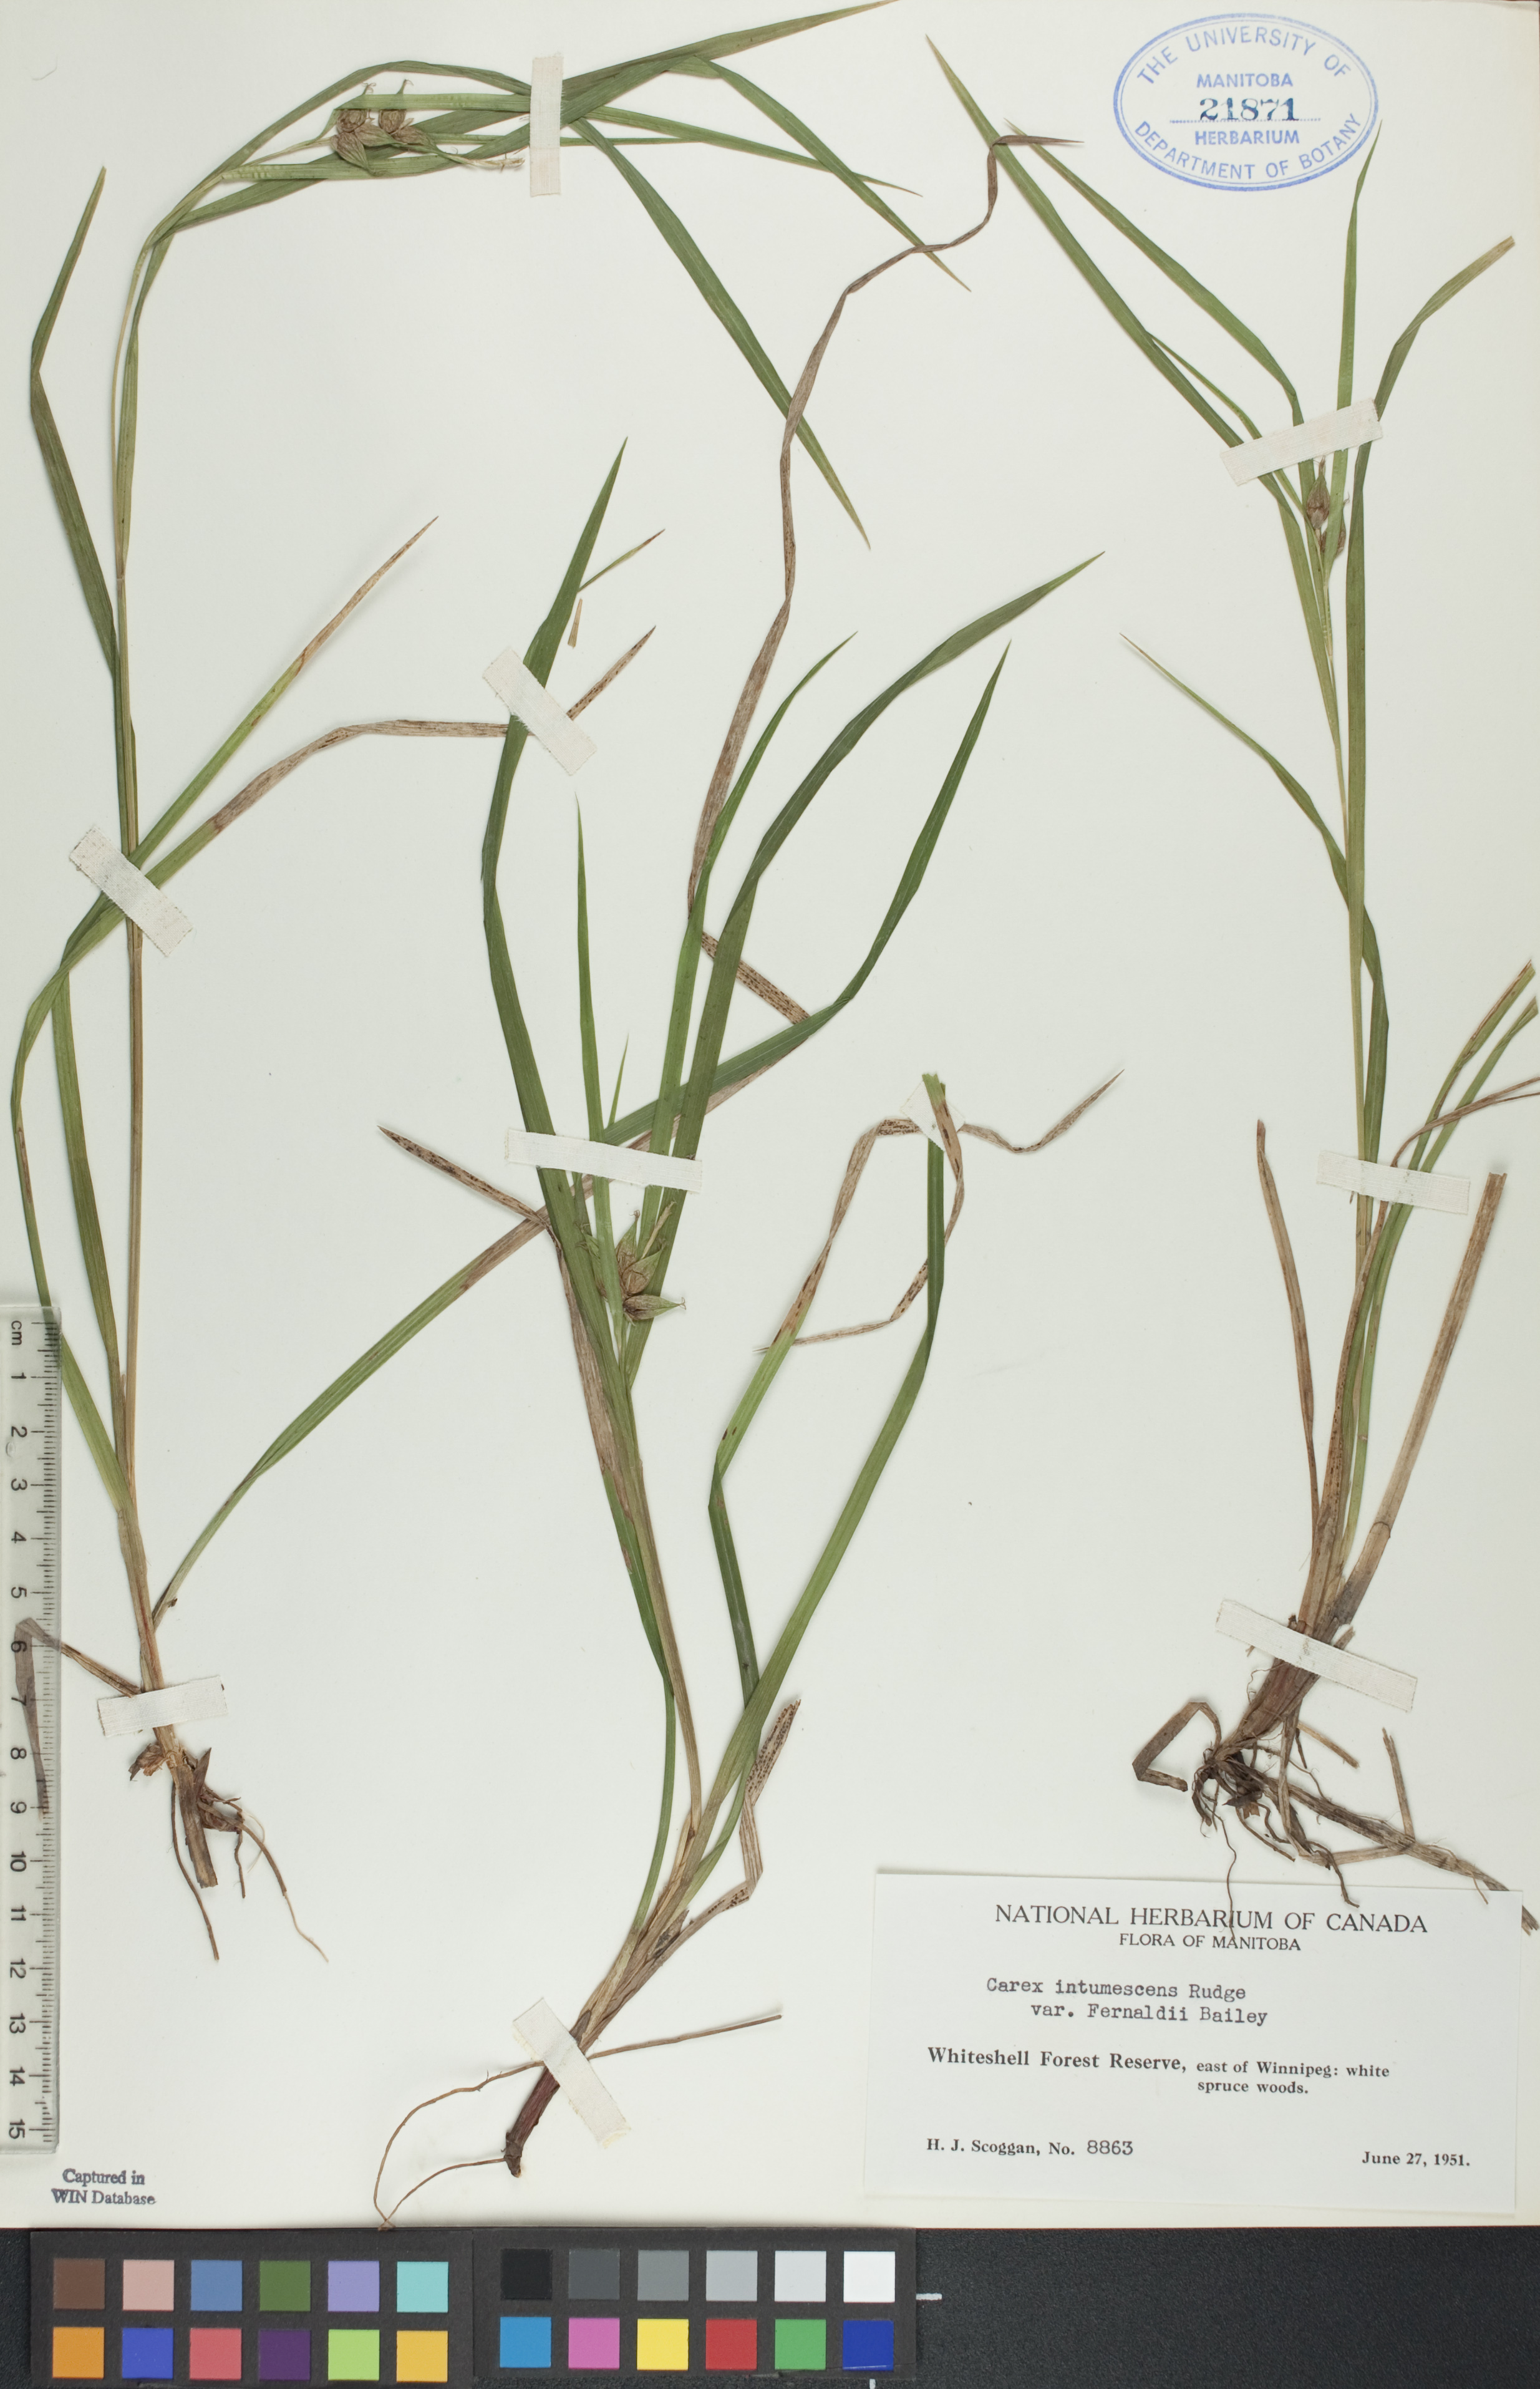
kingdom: Plantae
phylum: Tracheophyta
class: Liliopsida
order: Poales
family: Cyperaceae
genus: Carex
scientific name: Carex intumescens
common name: Greater bladder sedge
